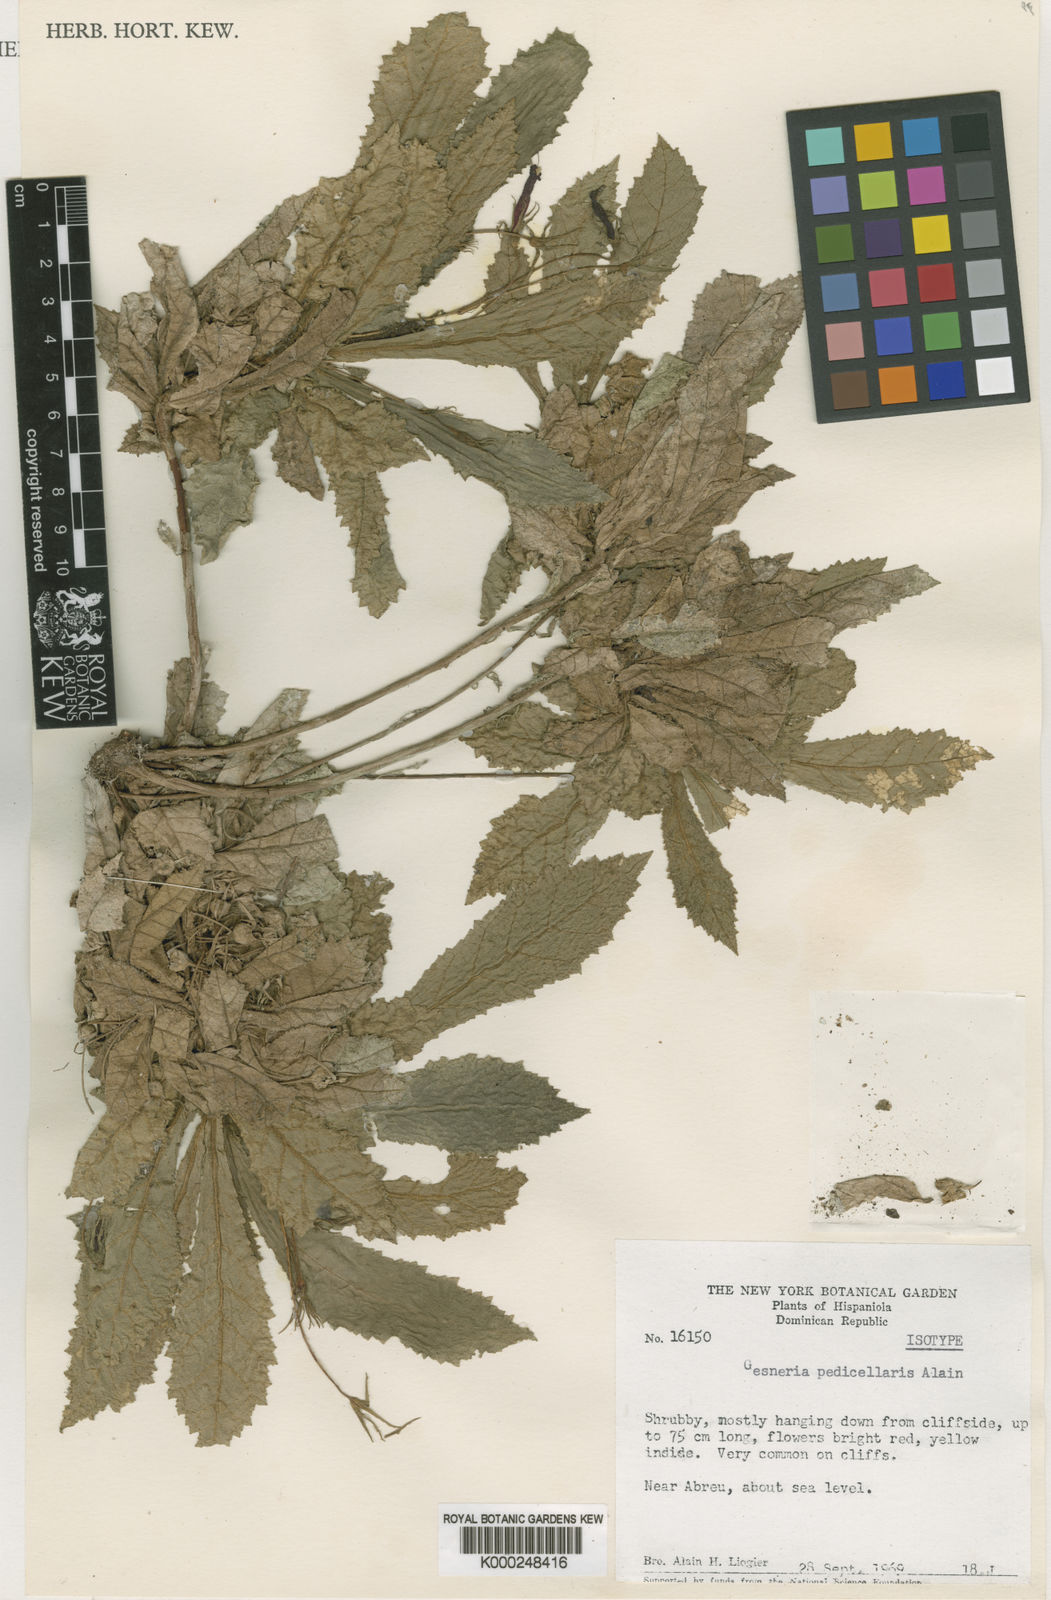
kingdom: Plantae
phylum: Tracheophyta
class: Magnoliopsida
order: Lamiales
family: Gesneriaceae
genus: Gesneria
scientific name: Gesneria pedicellaris
